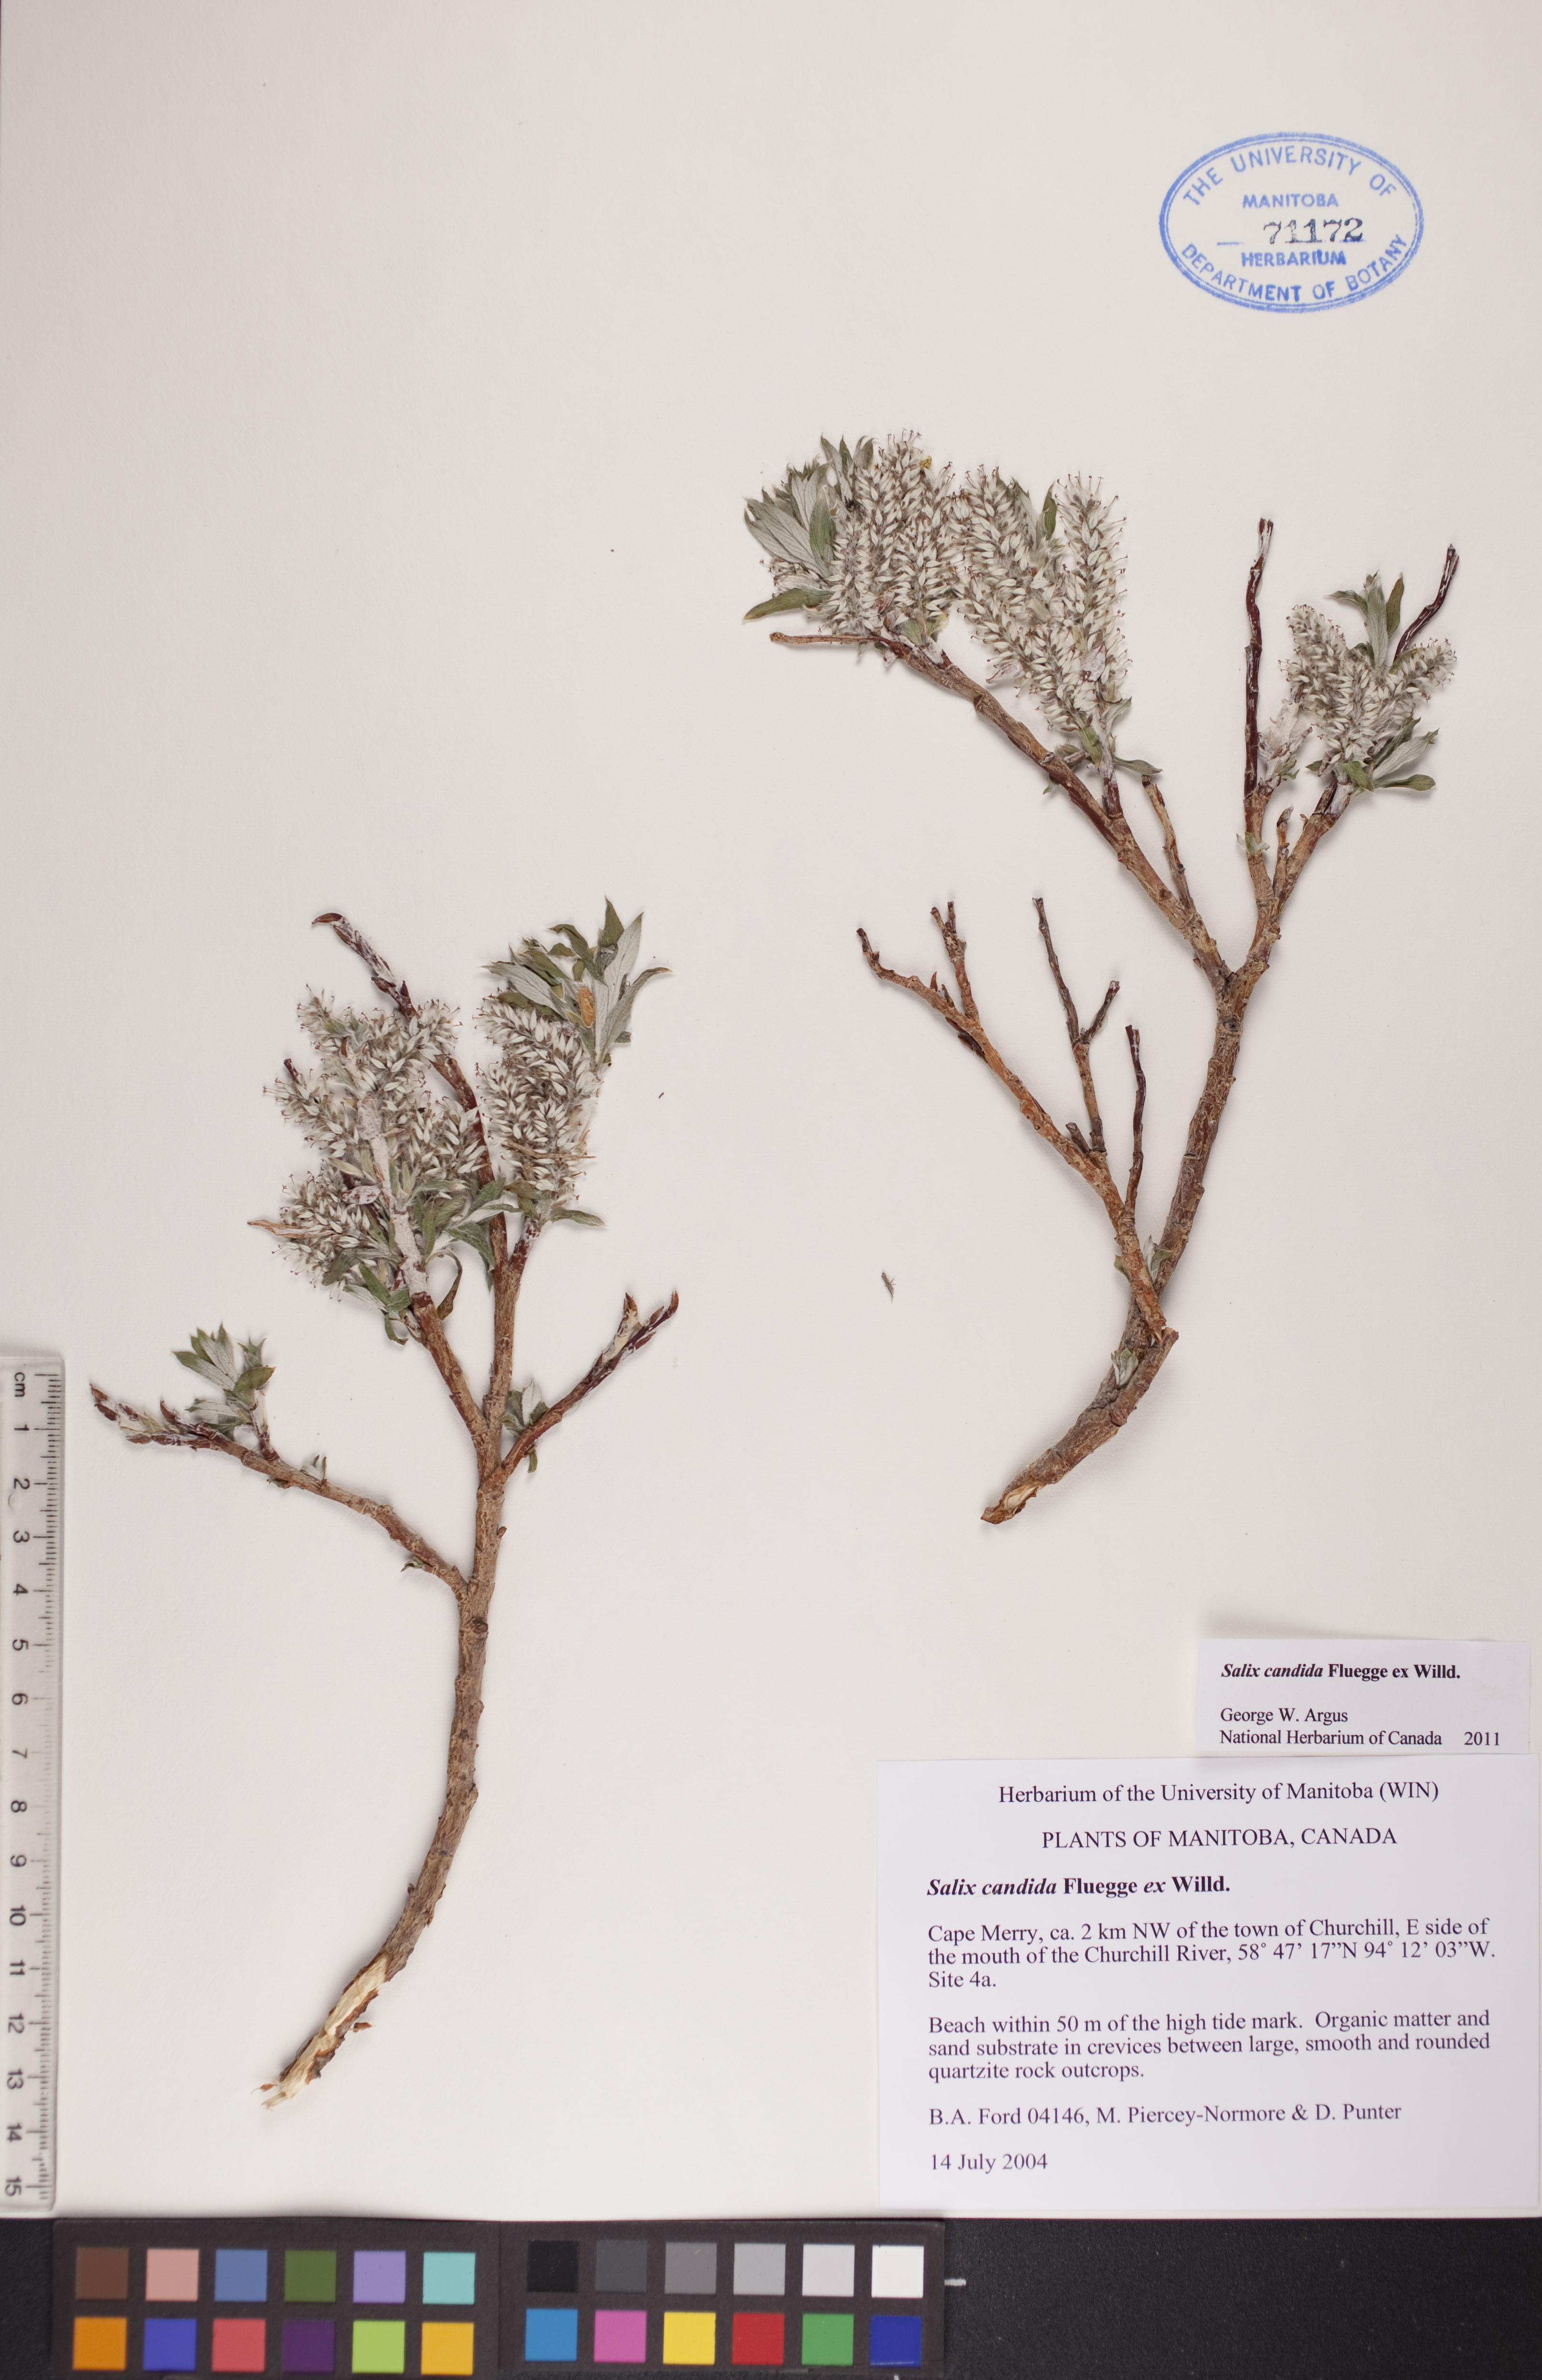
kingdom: Plantae
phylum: Tracheophyta
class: Magnoliopsida
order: Malpighiales
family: Salicaceae
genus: Salix
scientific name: Salix candida
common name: Hoary willow
